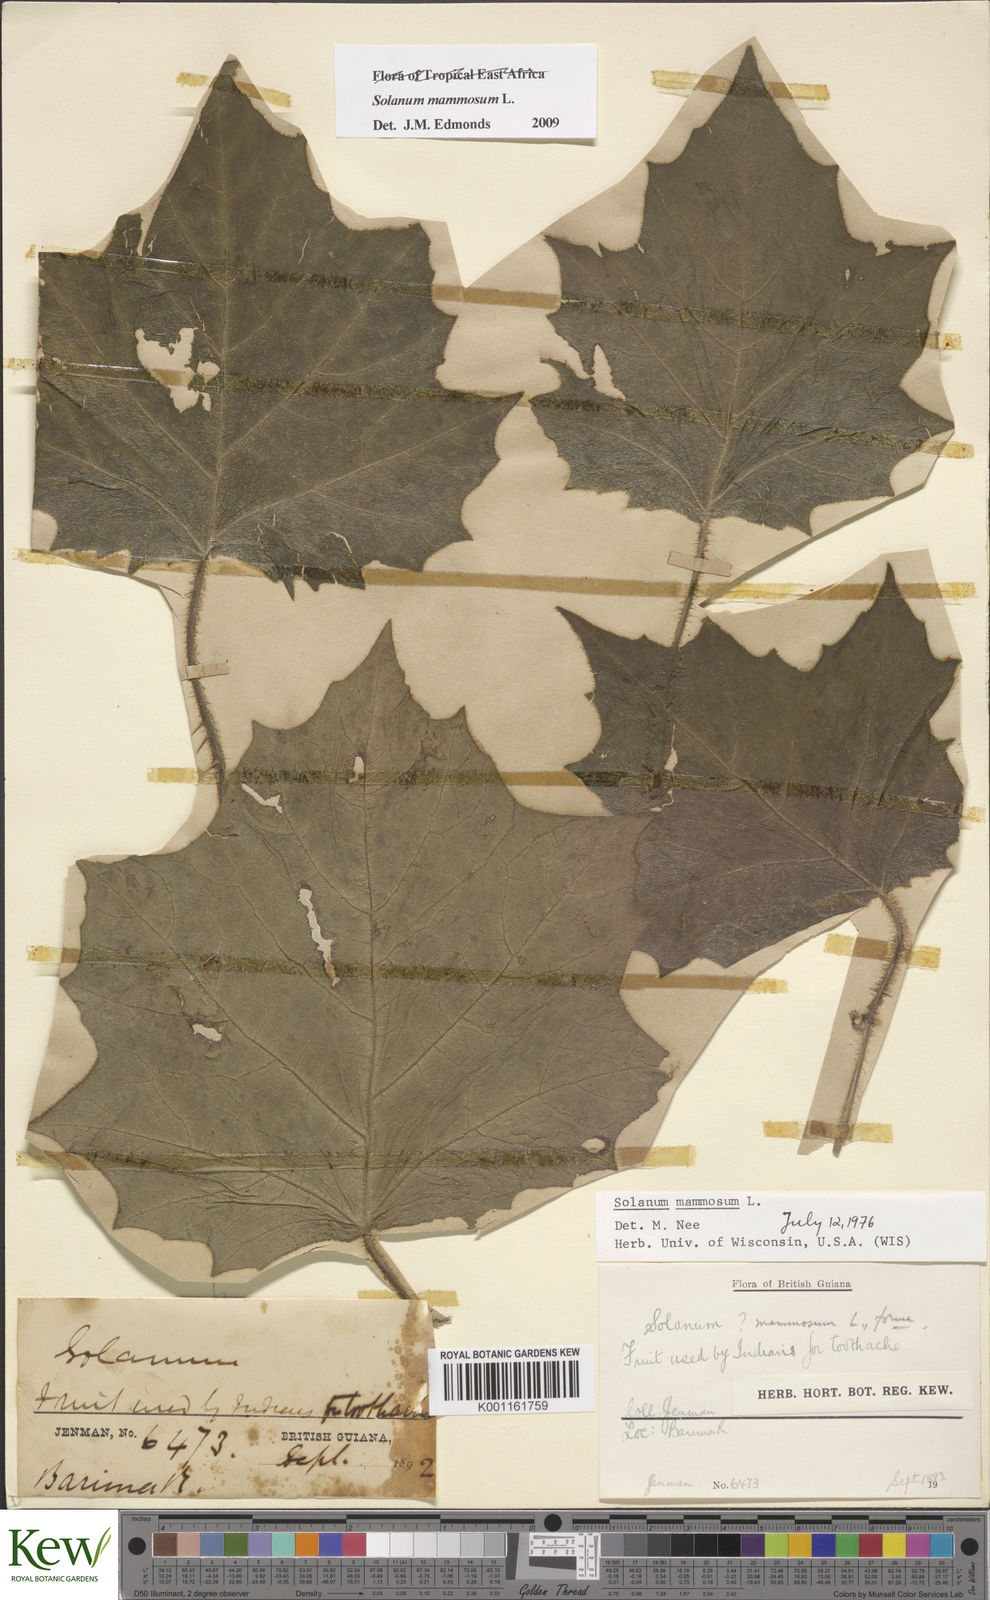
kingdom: Plantae
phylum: Tracheophyta
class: Magnoliopsida
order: Solanales
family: Solanaceae
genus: Solanum
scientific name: Solanum mammosum
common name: Nipple fruit
